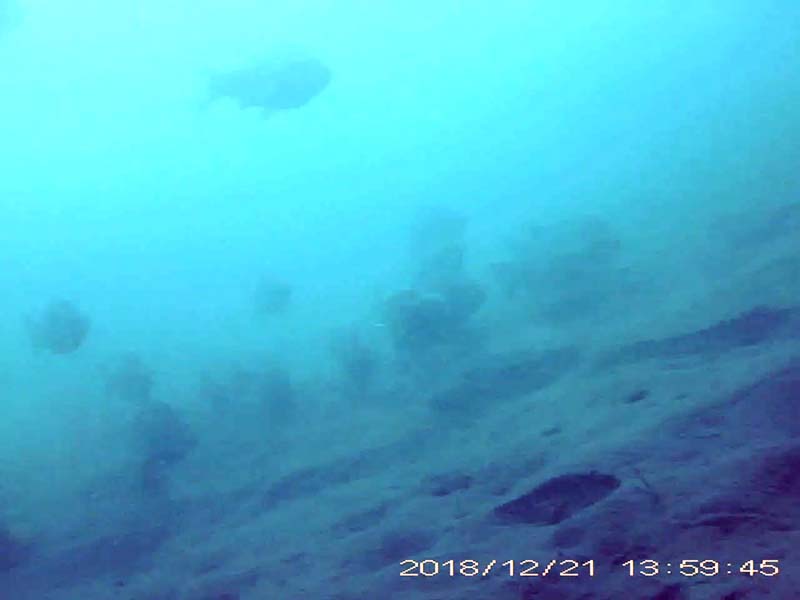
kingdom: Animalia
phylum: Chordata
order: Cypriniformes
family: Cyprinidae
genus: Carassius
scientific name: Carassius
